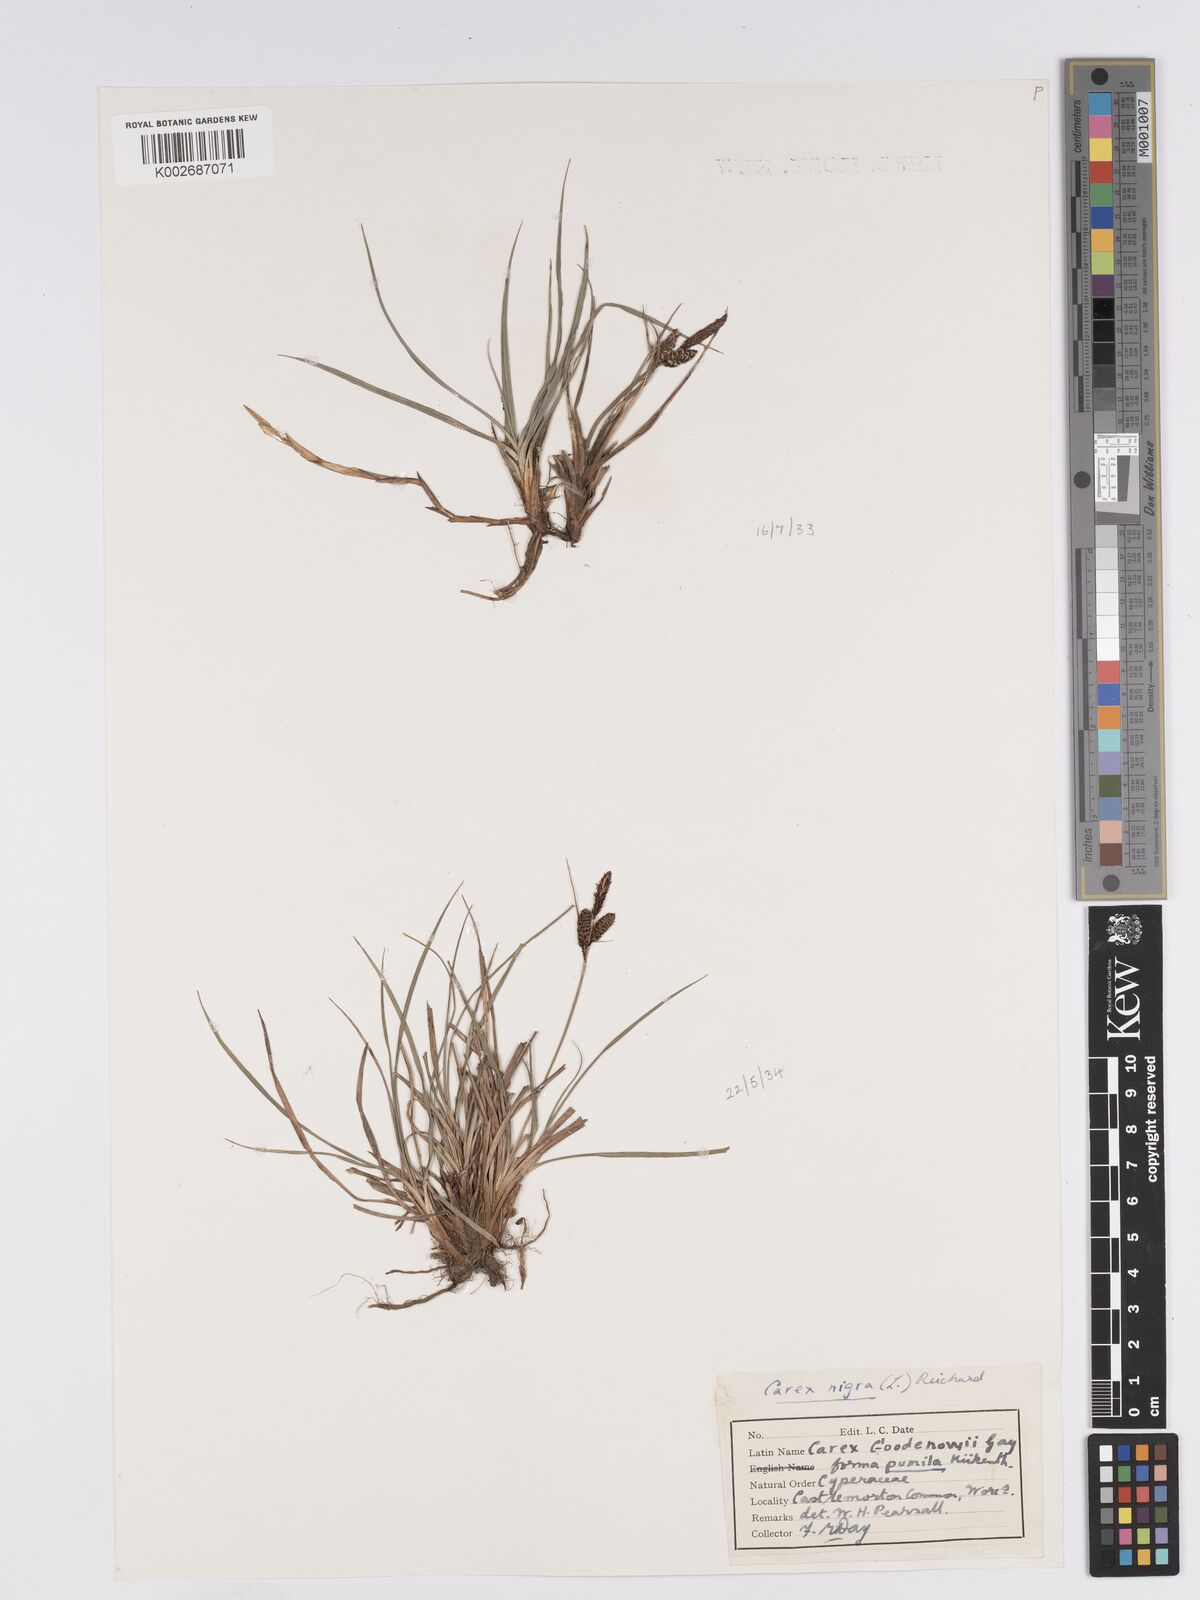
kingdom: Plantae
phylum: Tracheophyta
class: Liliopsida
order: Poales
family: Cyperaceae
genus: Carex
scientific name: Carex nigra
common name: Common sedge
